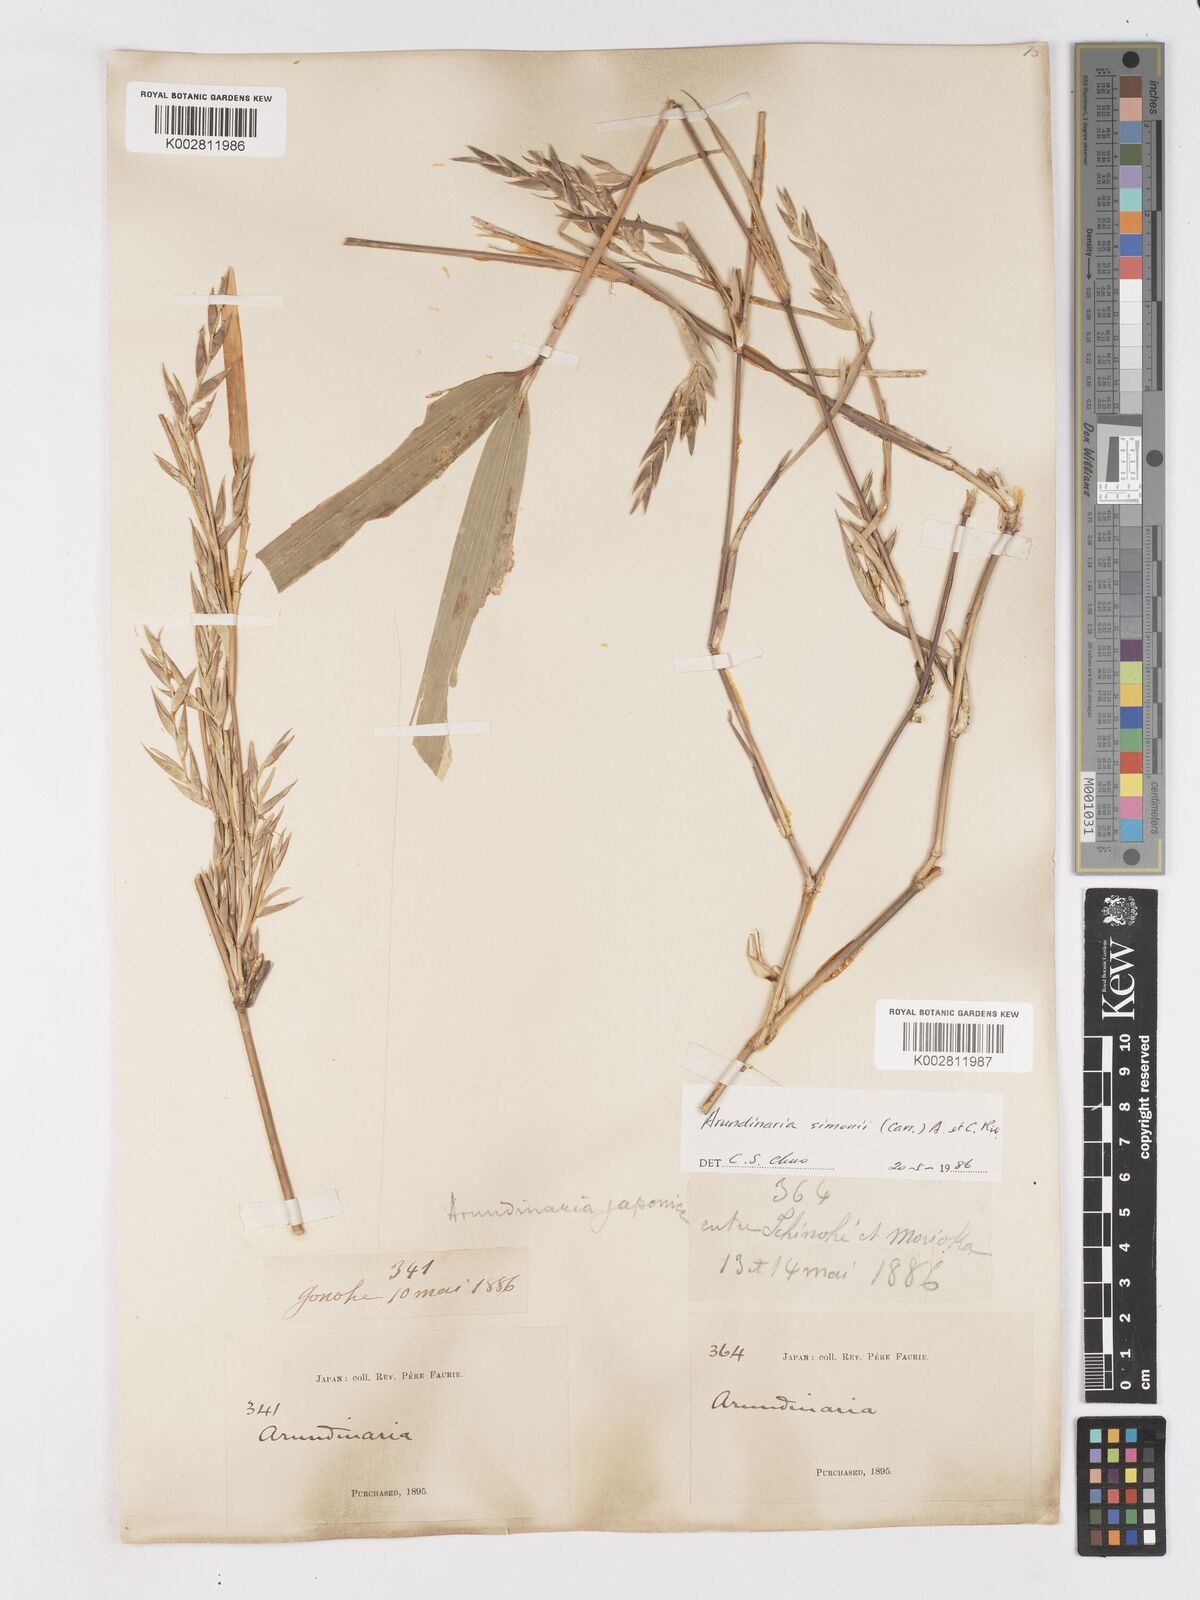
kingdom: Plantae
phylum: Tracheophyta
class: Liliopsida
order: Poales
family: Poaceae
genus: Pleioblastus
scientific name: Pleioblastus simonii
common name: Simon bamboo
